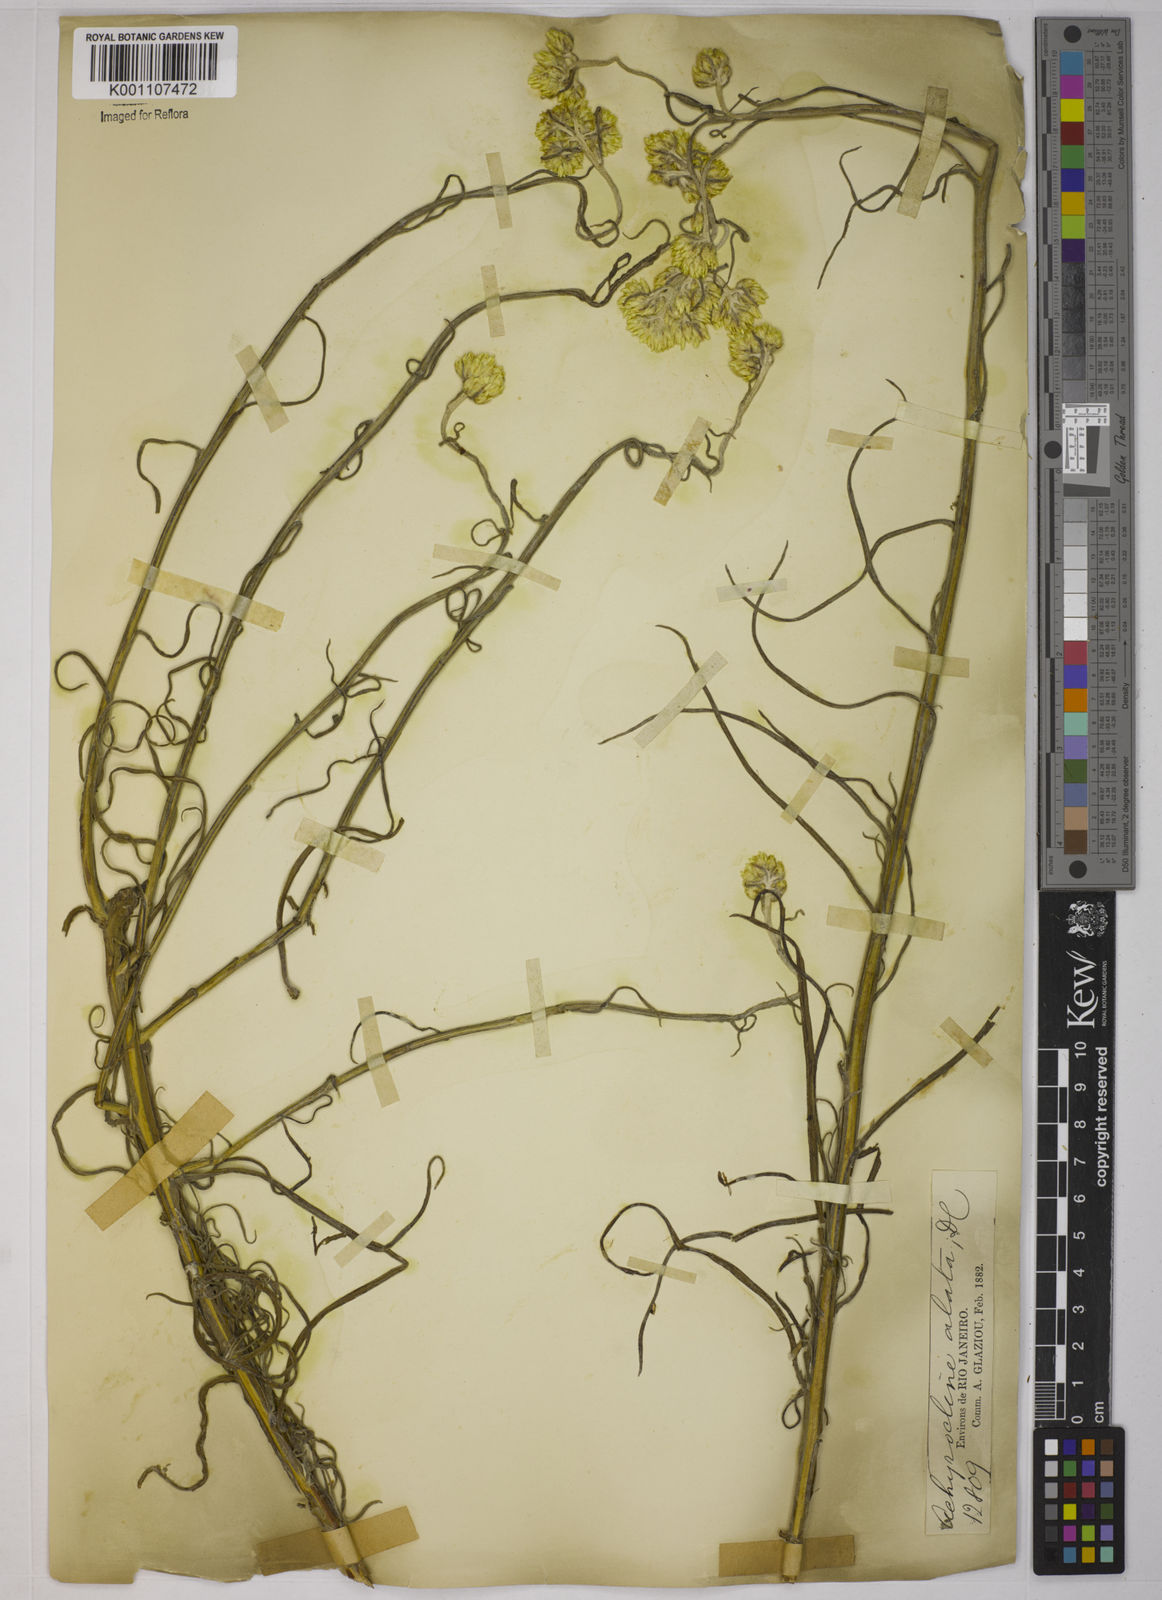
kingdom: Plantae
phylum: Tracheophyta
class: Magnoliopsida
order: Asterales
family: Asteraceae
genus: Achyrocline
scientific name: Achyrocline alata
